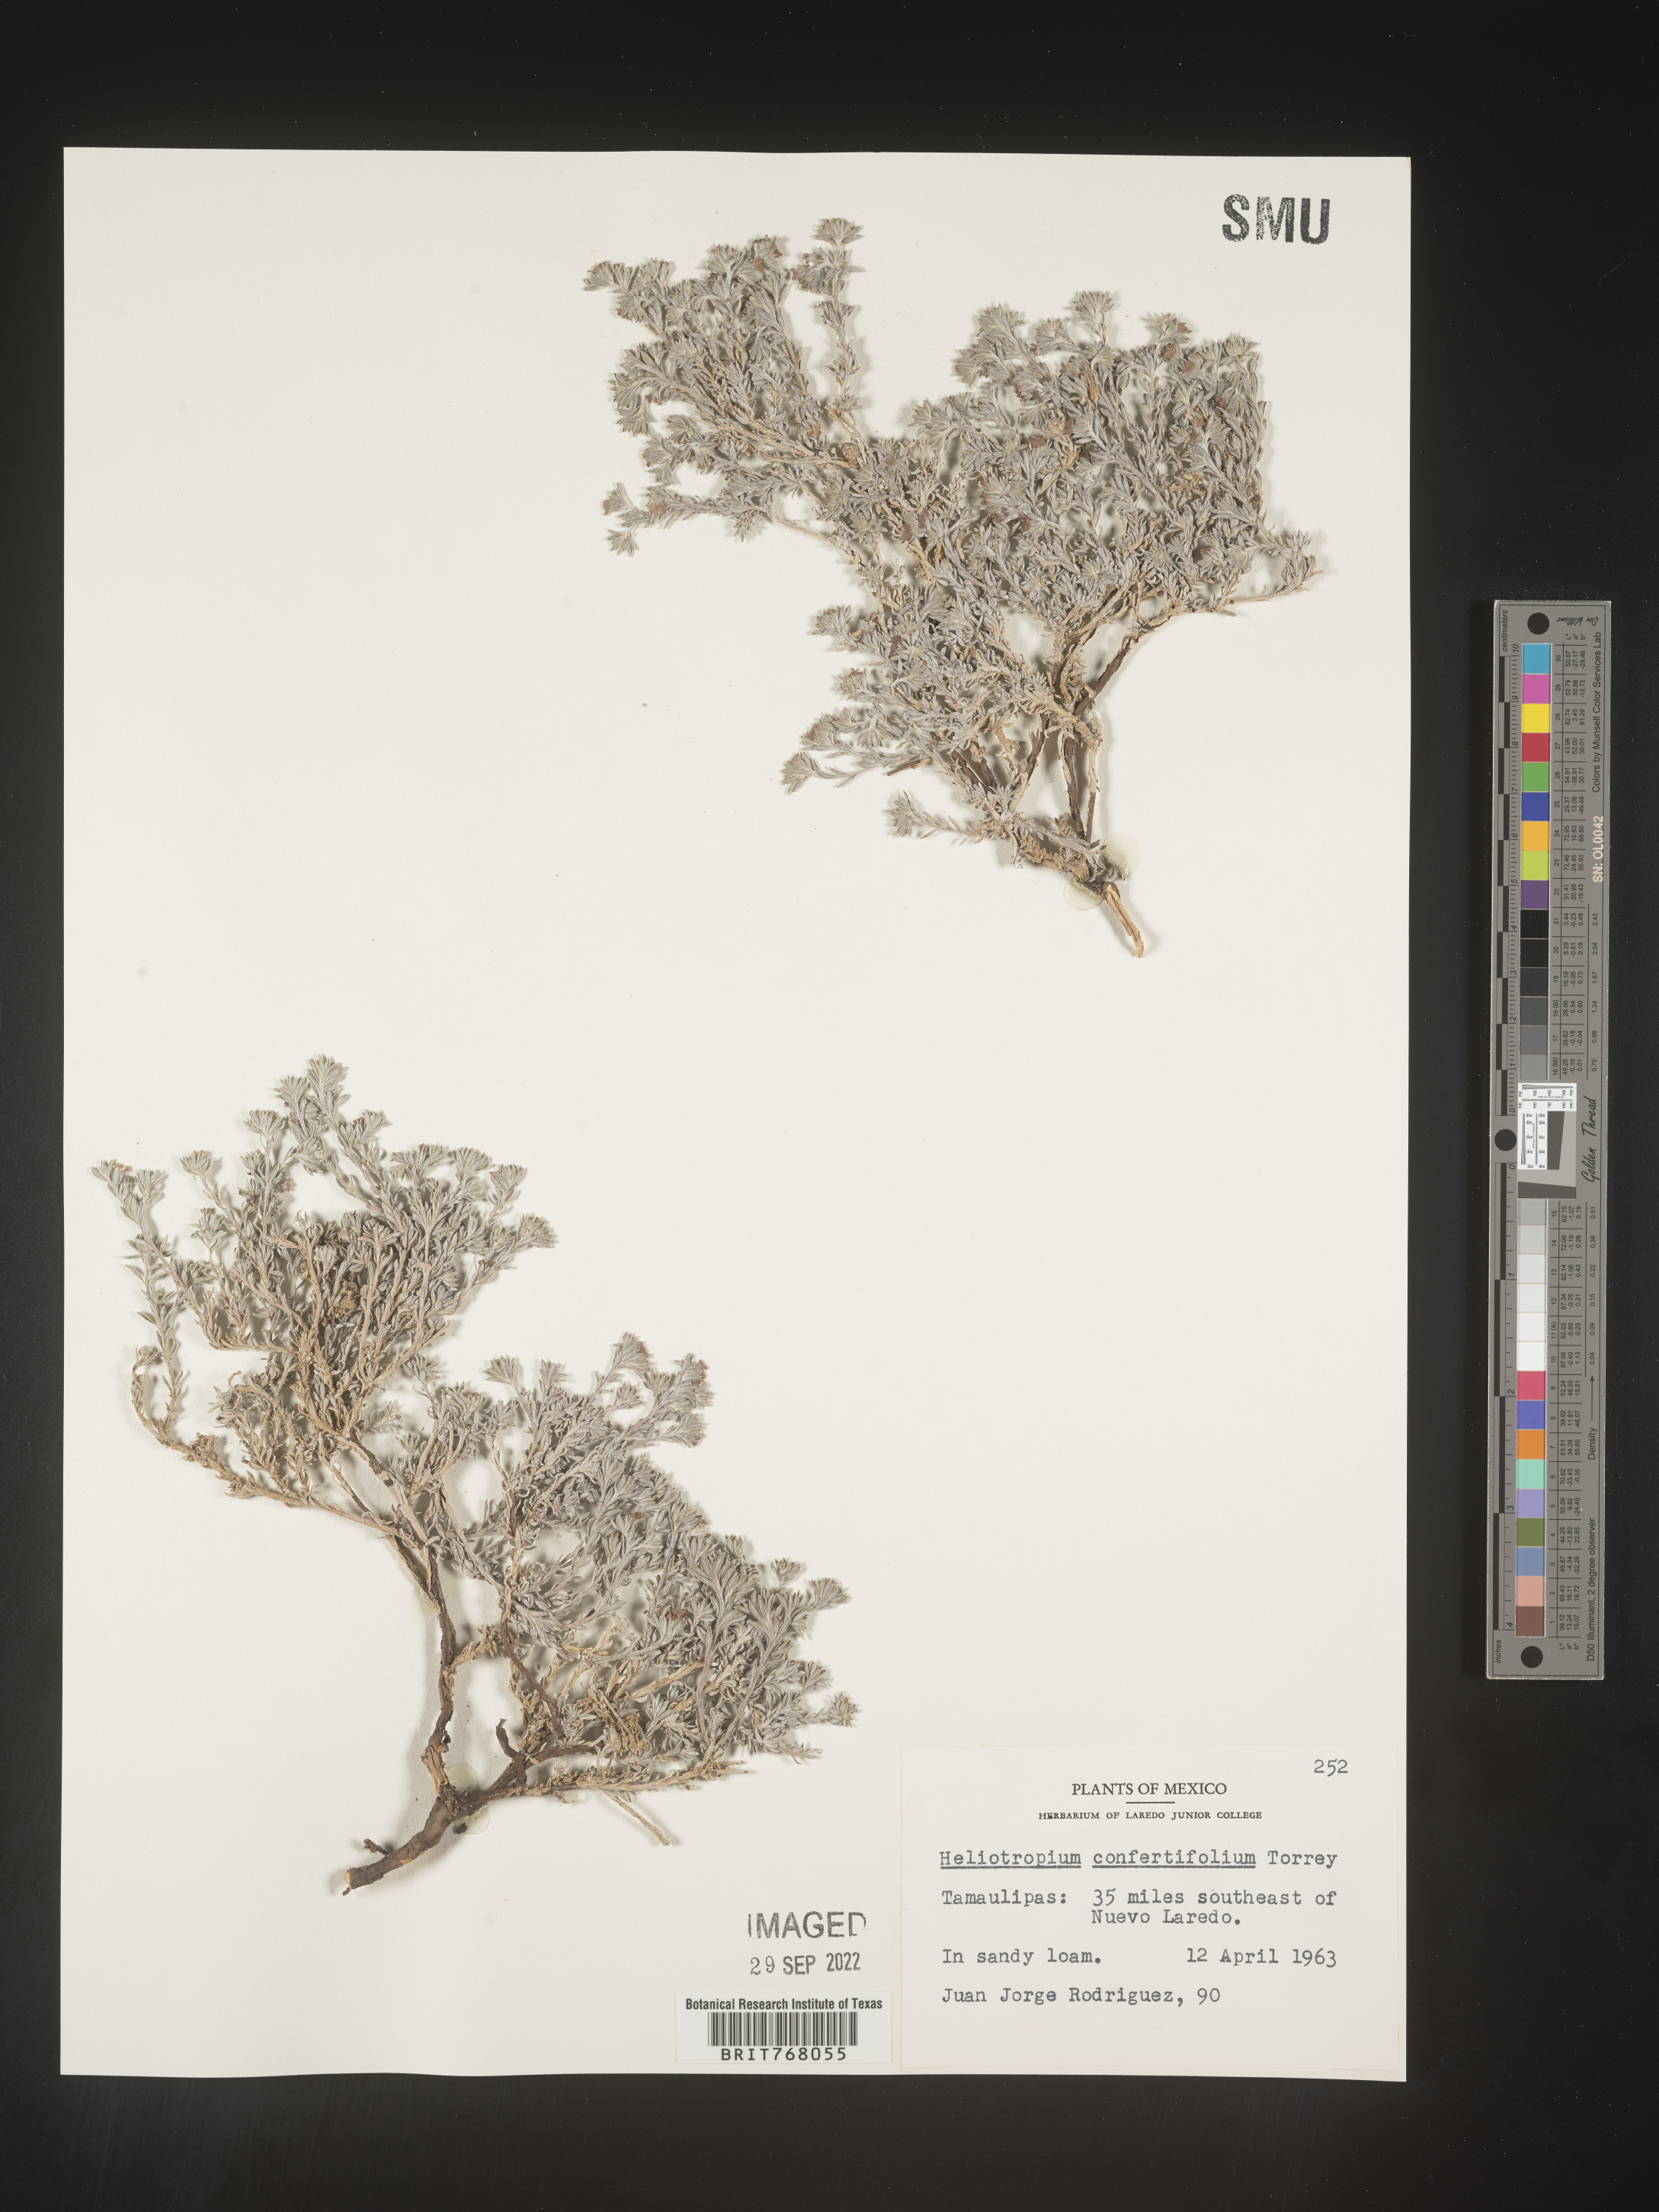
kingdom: Plantae
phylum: Tracheophyta
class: Magnoliopsida
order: Boraginales
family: Heliotropiaceae
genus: Heliotropium
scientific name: Heliotropium
